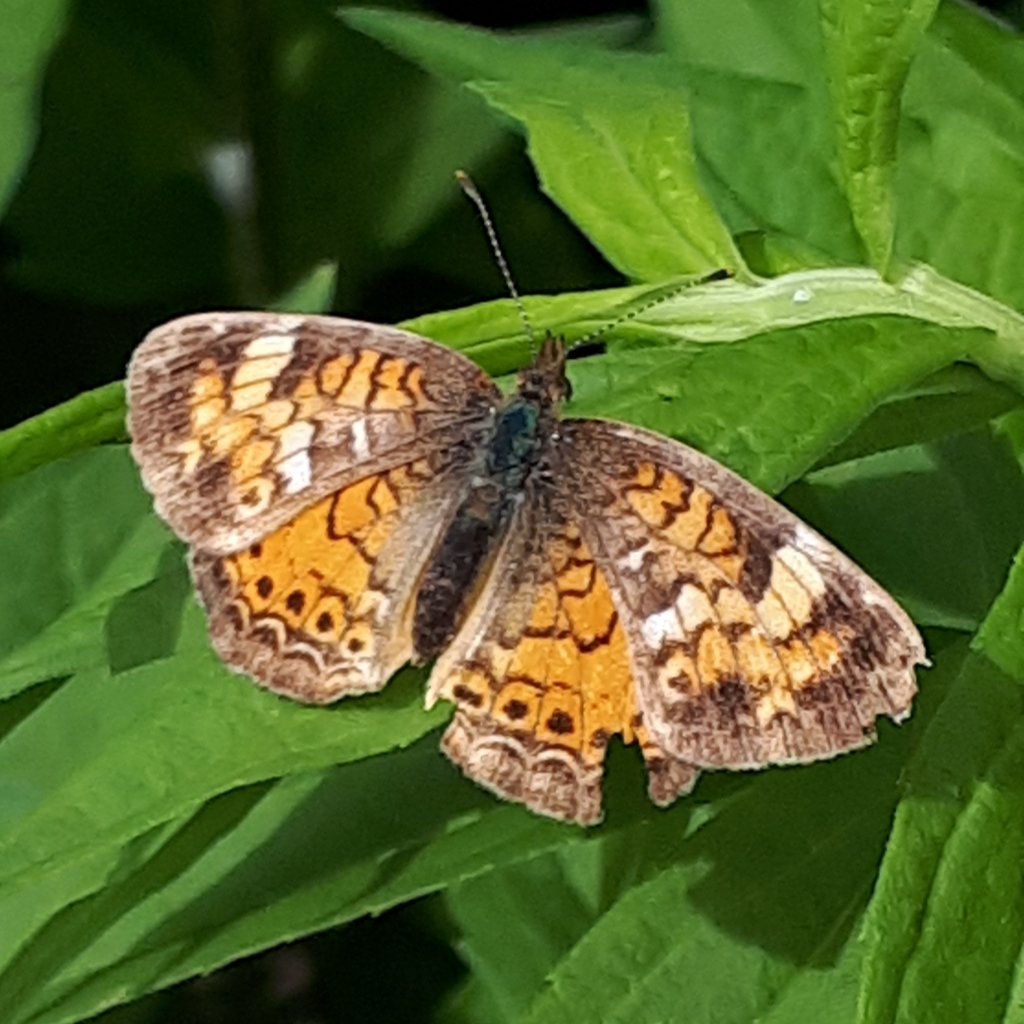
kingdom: Animalia
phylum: Arthropoda
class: Insecta
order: Lepidoptera
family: Nymphalidae
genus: Phyciodes
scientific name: Phyciodes tharos
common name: Northern Crescent
